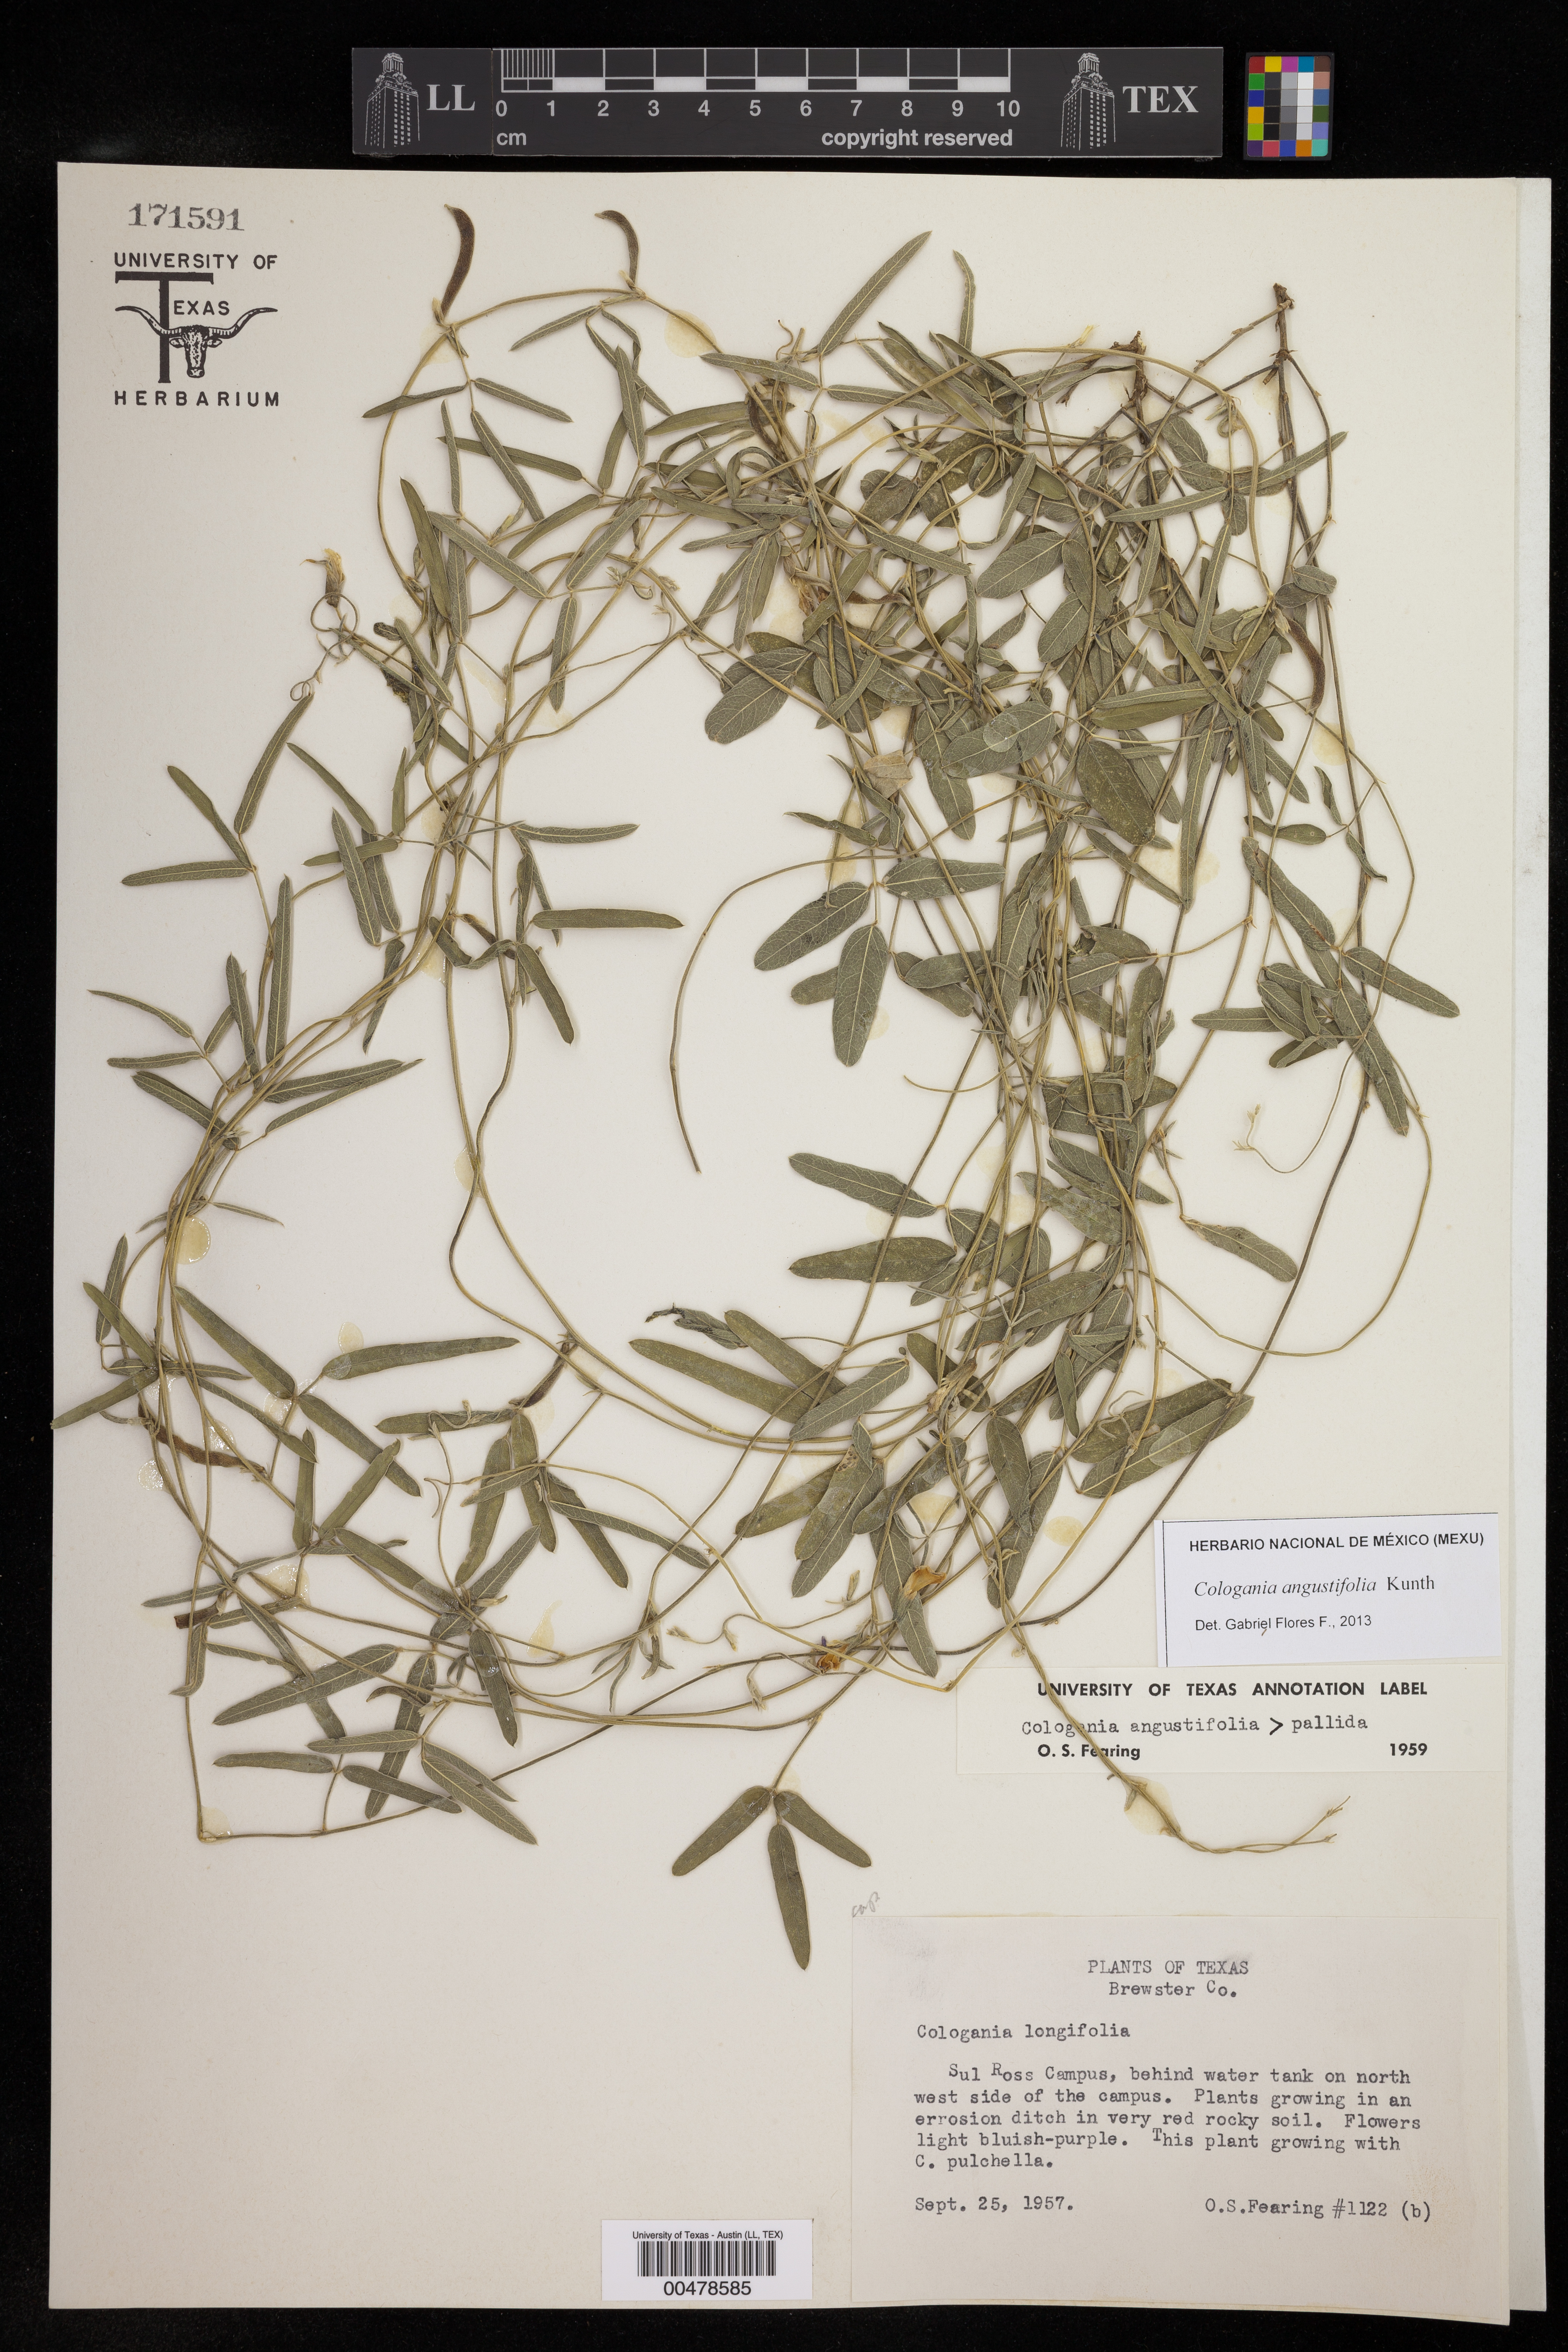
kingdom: Plantae
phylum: Tracheophyta
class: Magnoliopsida
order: Fabales
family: Fabaceae
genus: Cologania
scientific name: Cologania angustifolia
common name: Longleaf cologania
